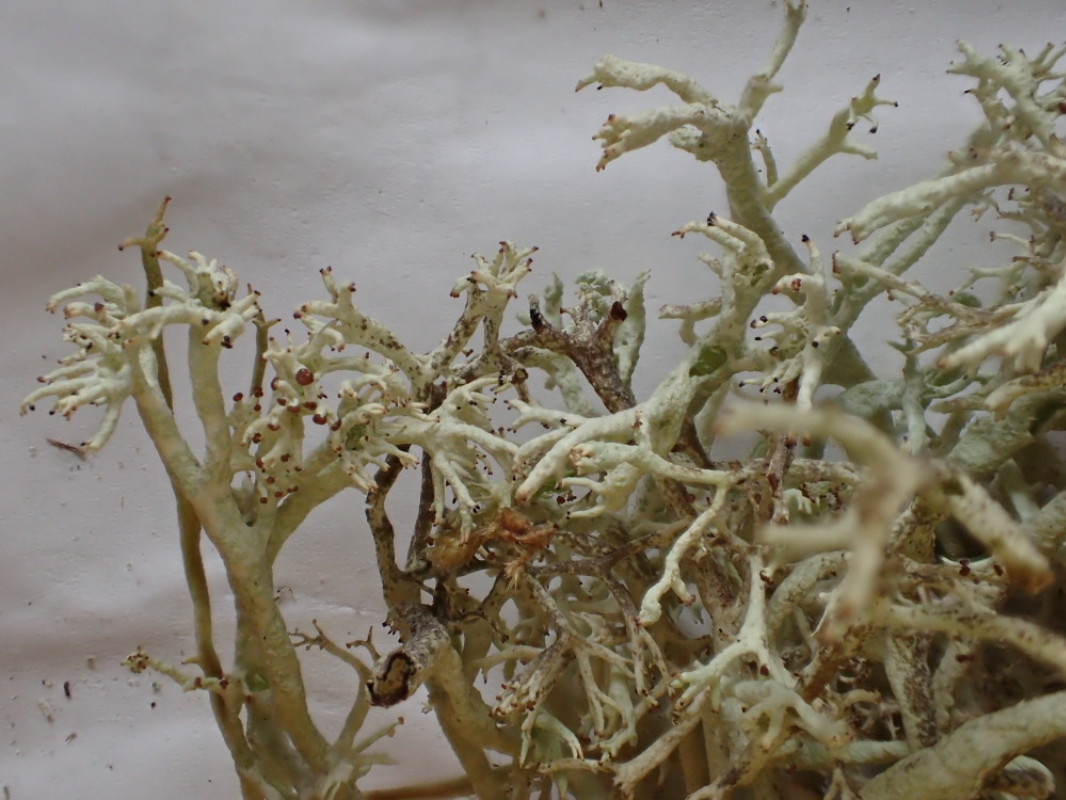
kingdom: Fungi
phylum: Ascomycota
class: Lecanoromycetes
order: Lecanorales
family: Cladoniaceae
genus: Cladonia
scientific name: Cladonia rangiferina
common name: askegrå rensdyrlav
